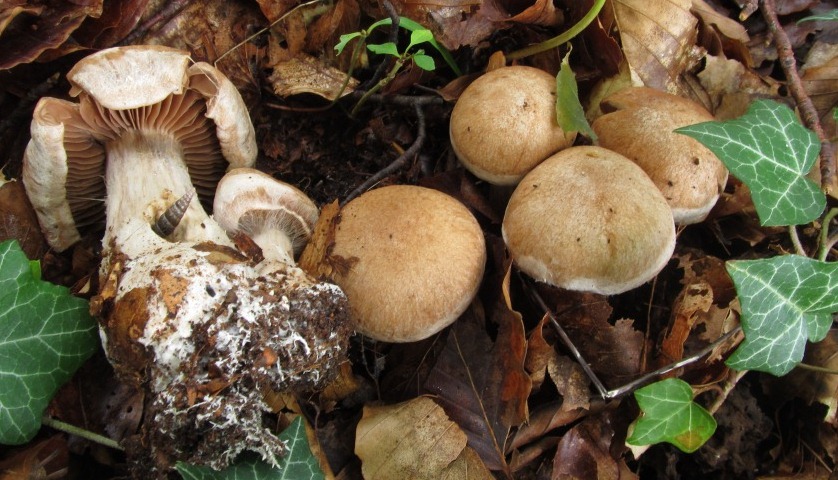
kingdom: Fungi
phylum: Basidiomycota
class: Agaricomycetes
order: Agaricales
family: Cortinariaceae
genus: Cortinarius
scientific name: Cortinarius sociatus
